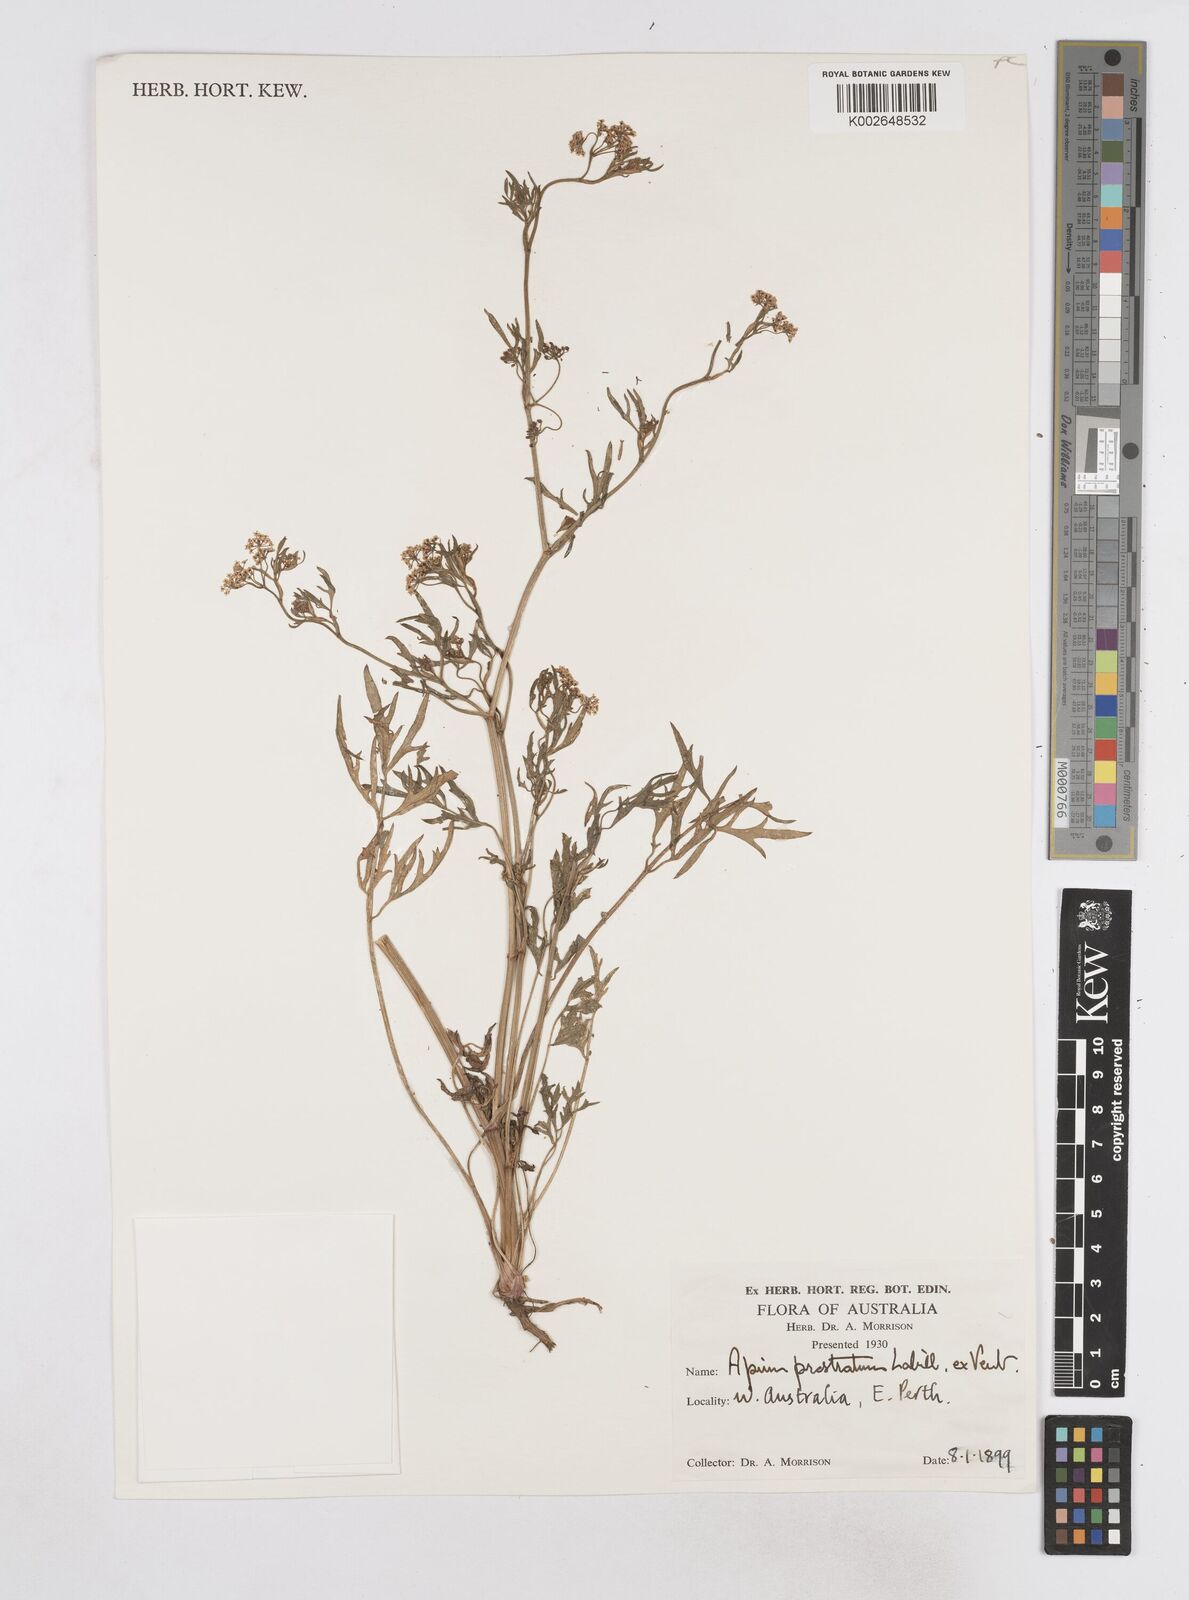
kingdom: Plantae
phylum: Tracheophyta
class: Magnoliopsida
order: Apiales
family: Apiaceae
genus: Apium
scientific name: Apium prostratum
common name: Prostrate marshwort
